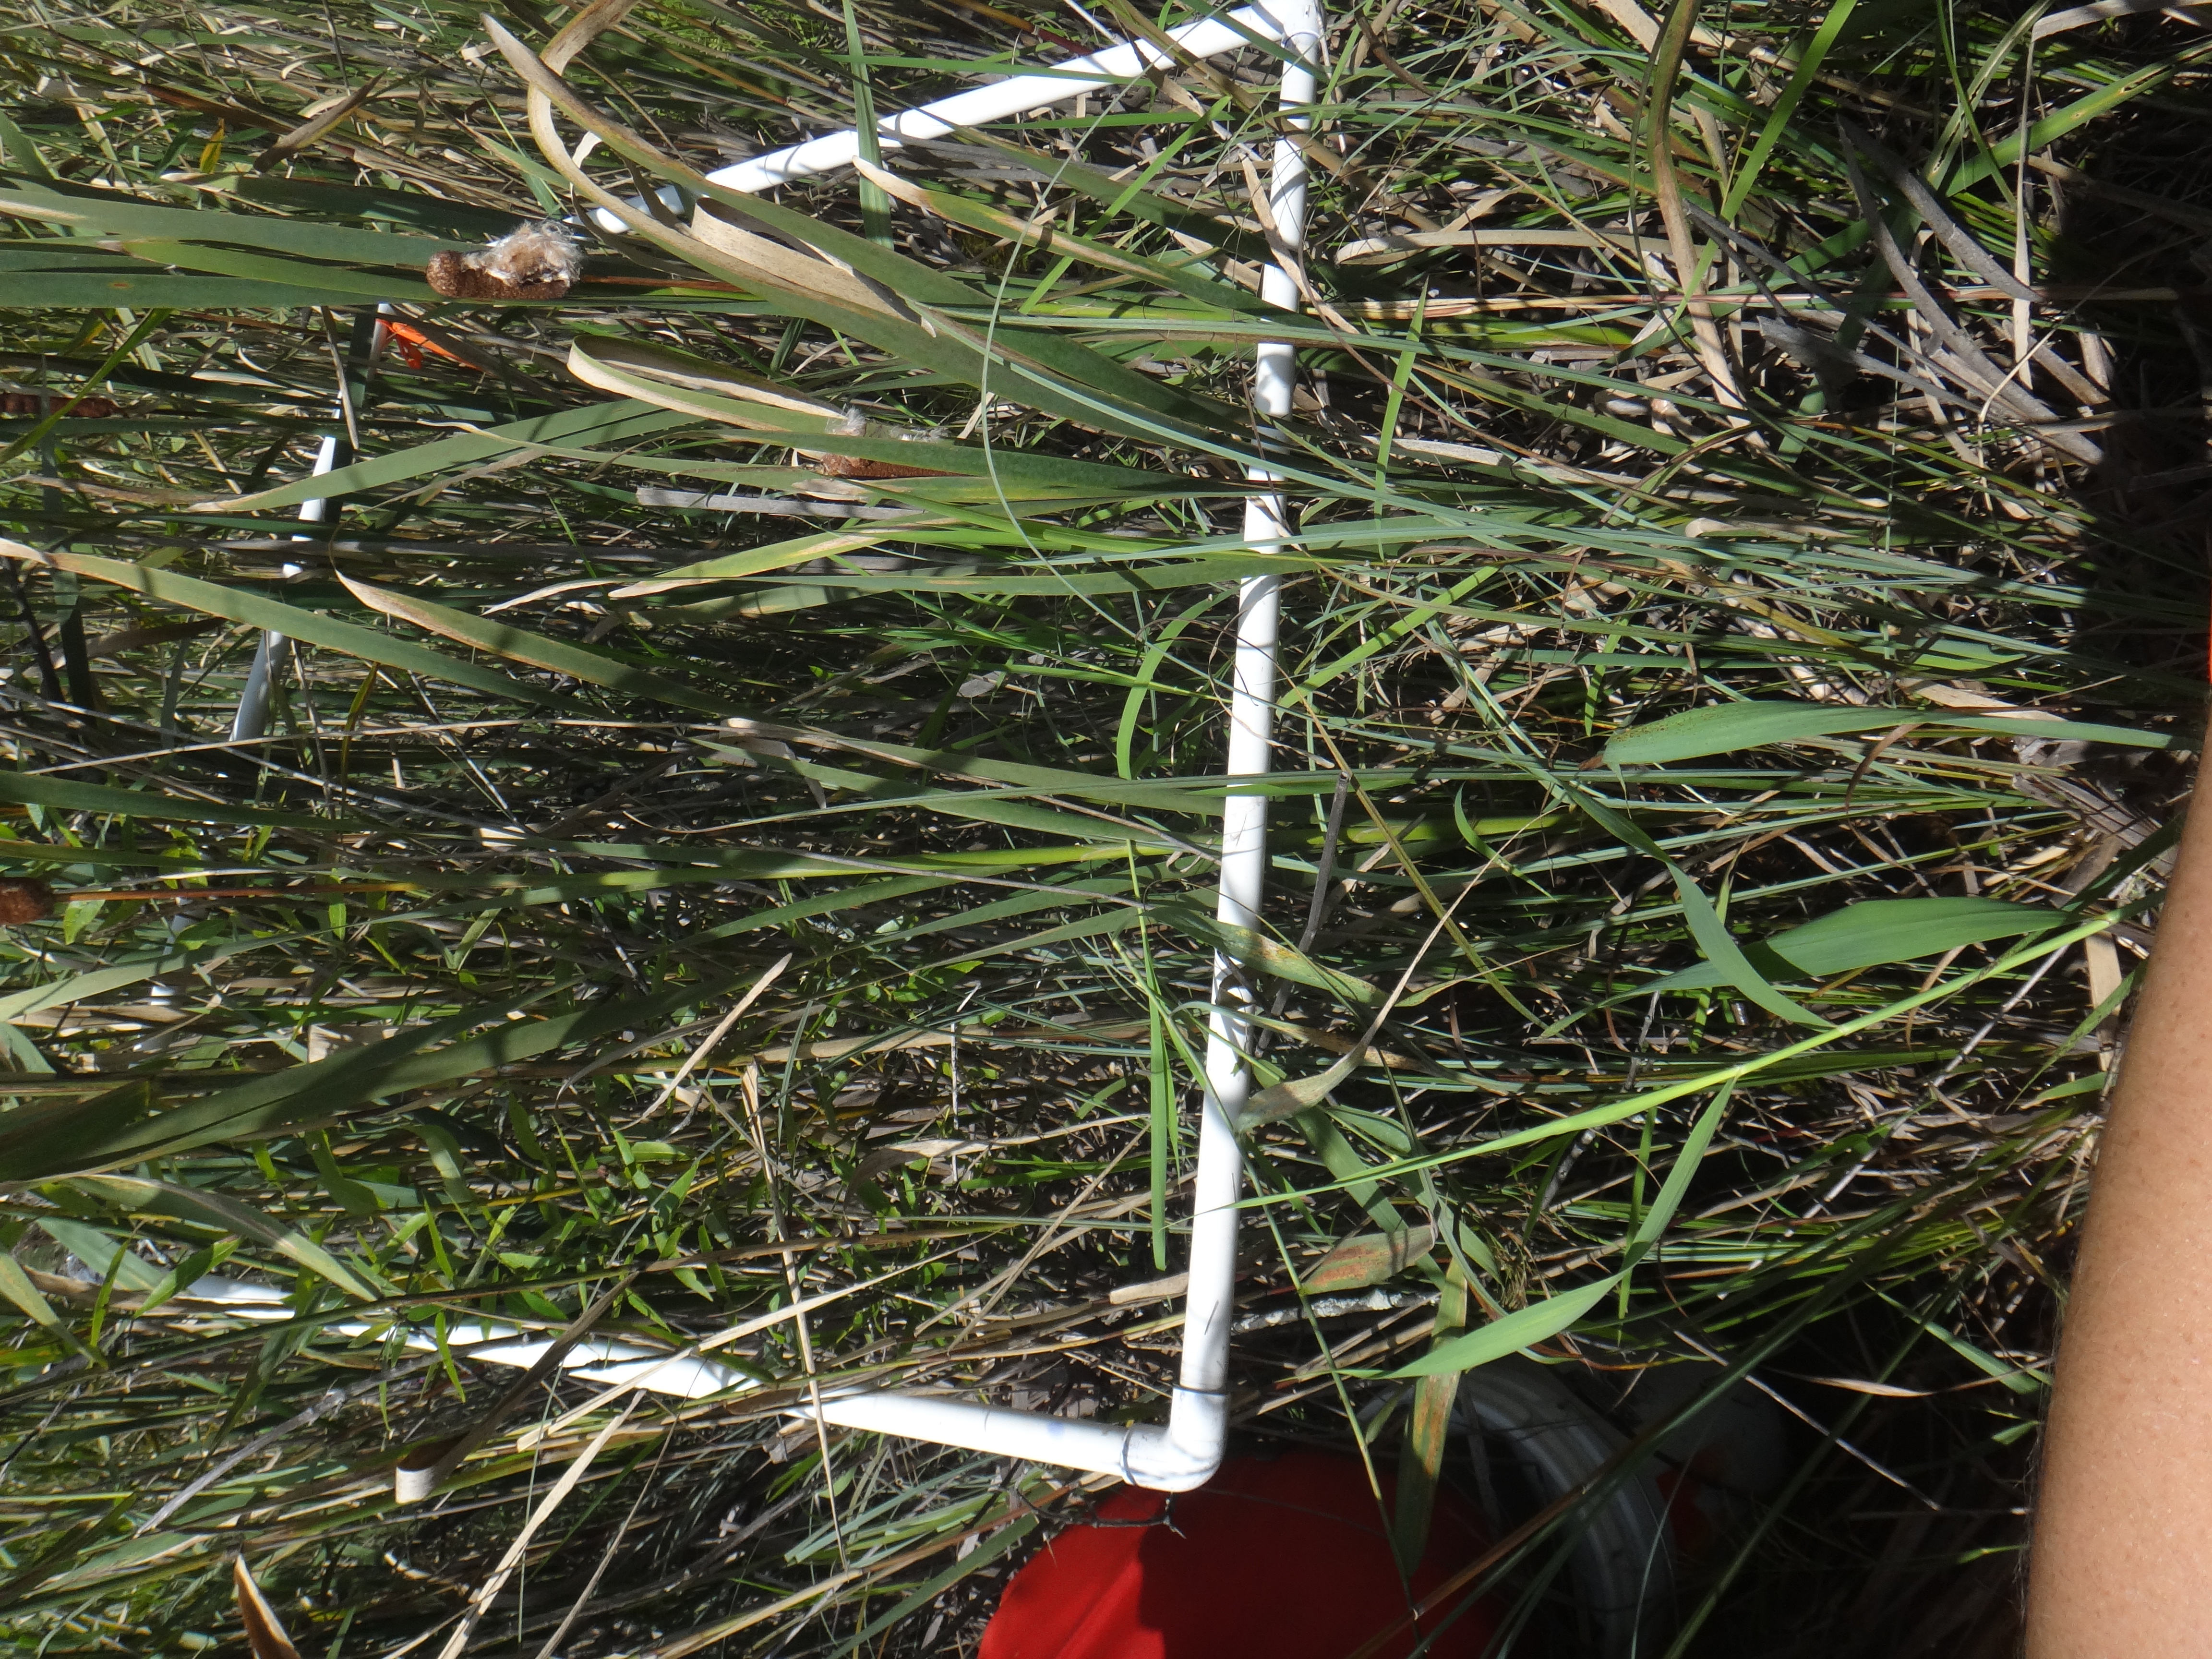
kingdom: Plantae
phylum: Tracheophyta
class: Liliopsida
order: Poales
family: Cyperaceae
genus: Carex
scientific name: Carex stricta
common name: Hummock sedge
